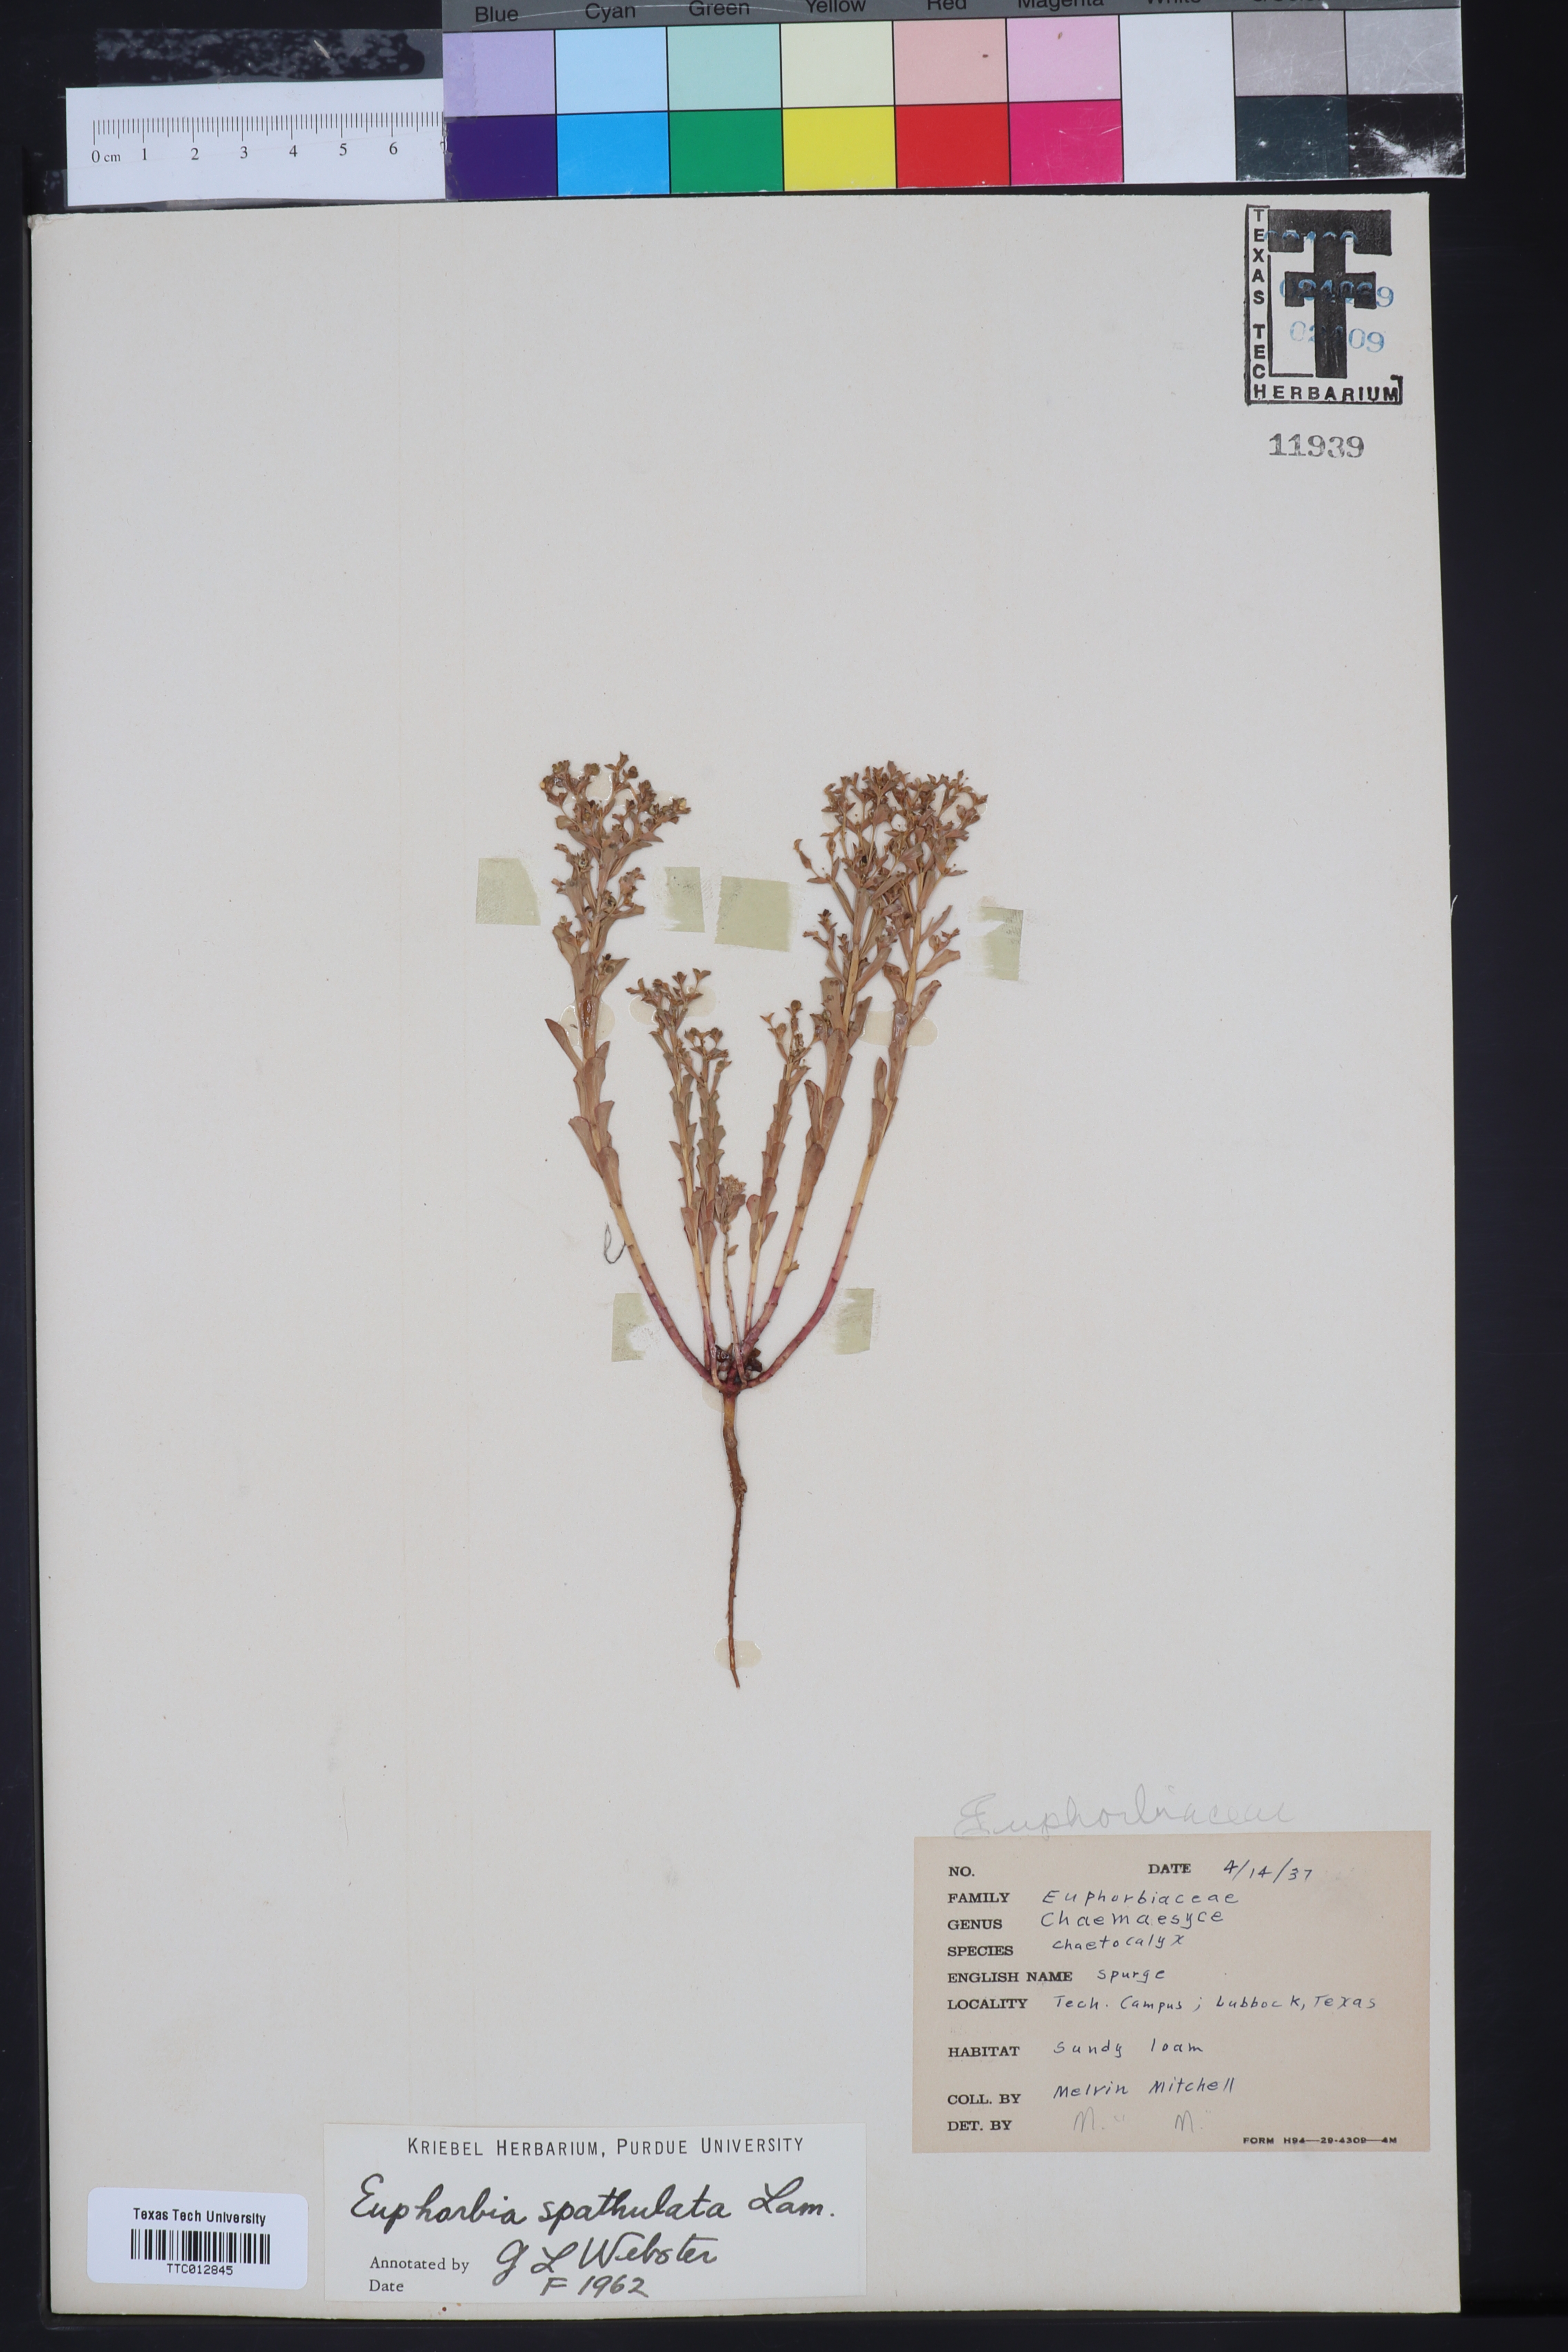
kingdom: Plantae
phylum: Tracheophyta
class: Magnoliopsida
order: Malpighiales
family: Euphorbiaceae
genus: Euphorbia
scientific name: Euphorbia spathulata
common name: Blunt spurge
